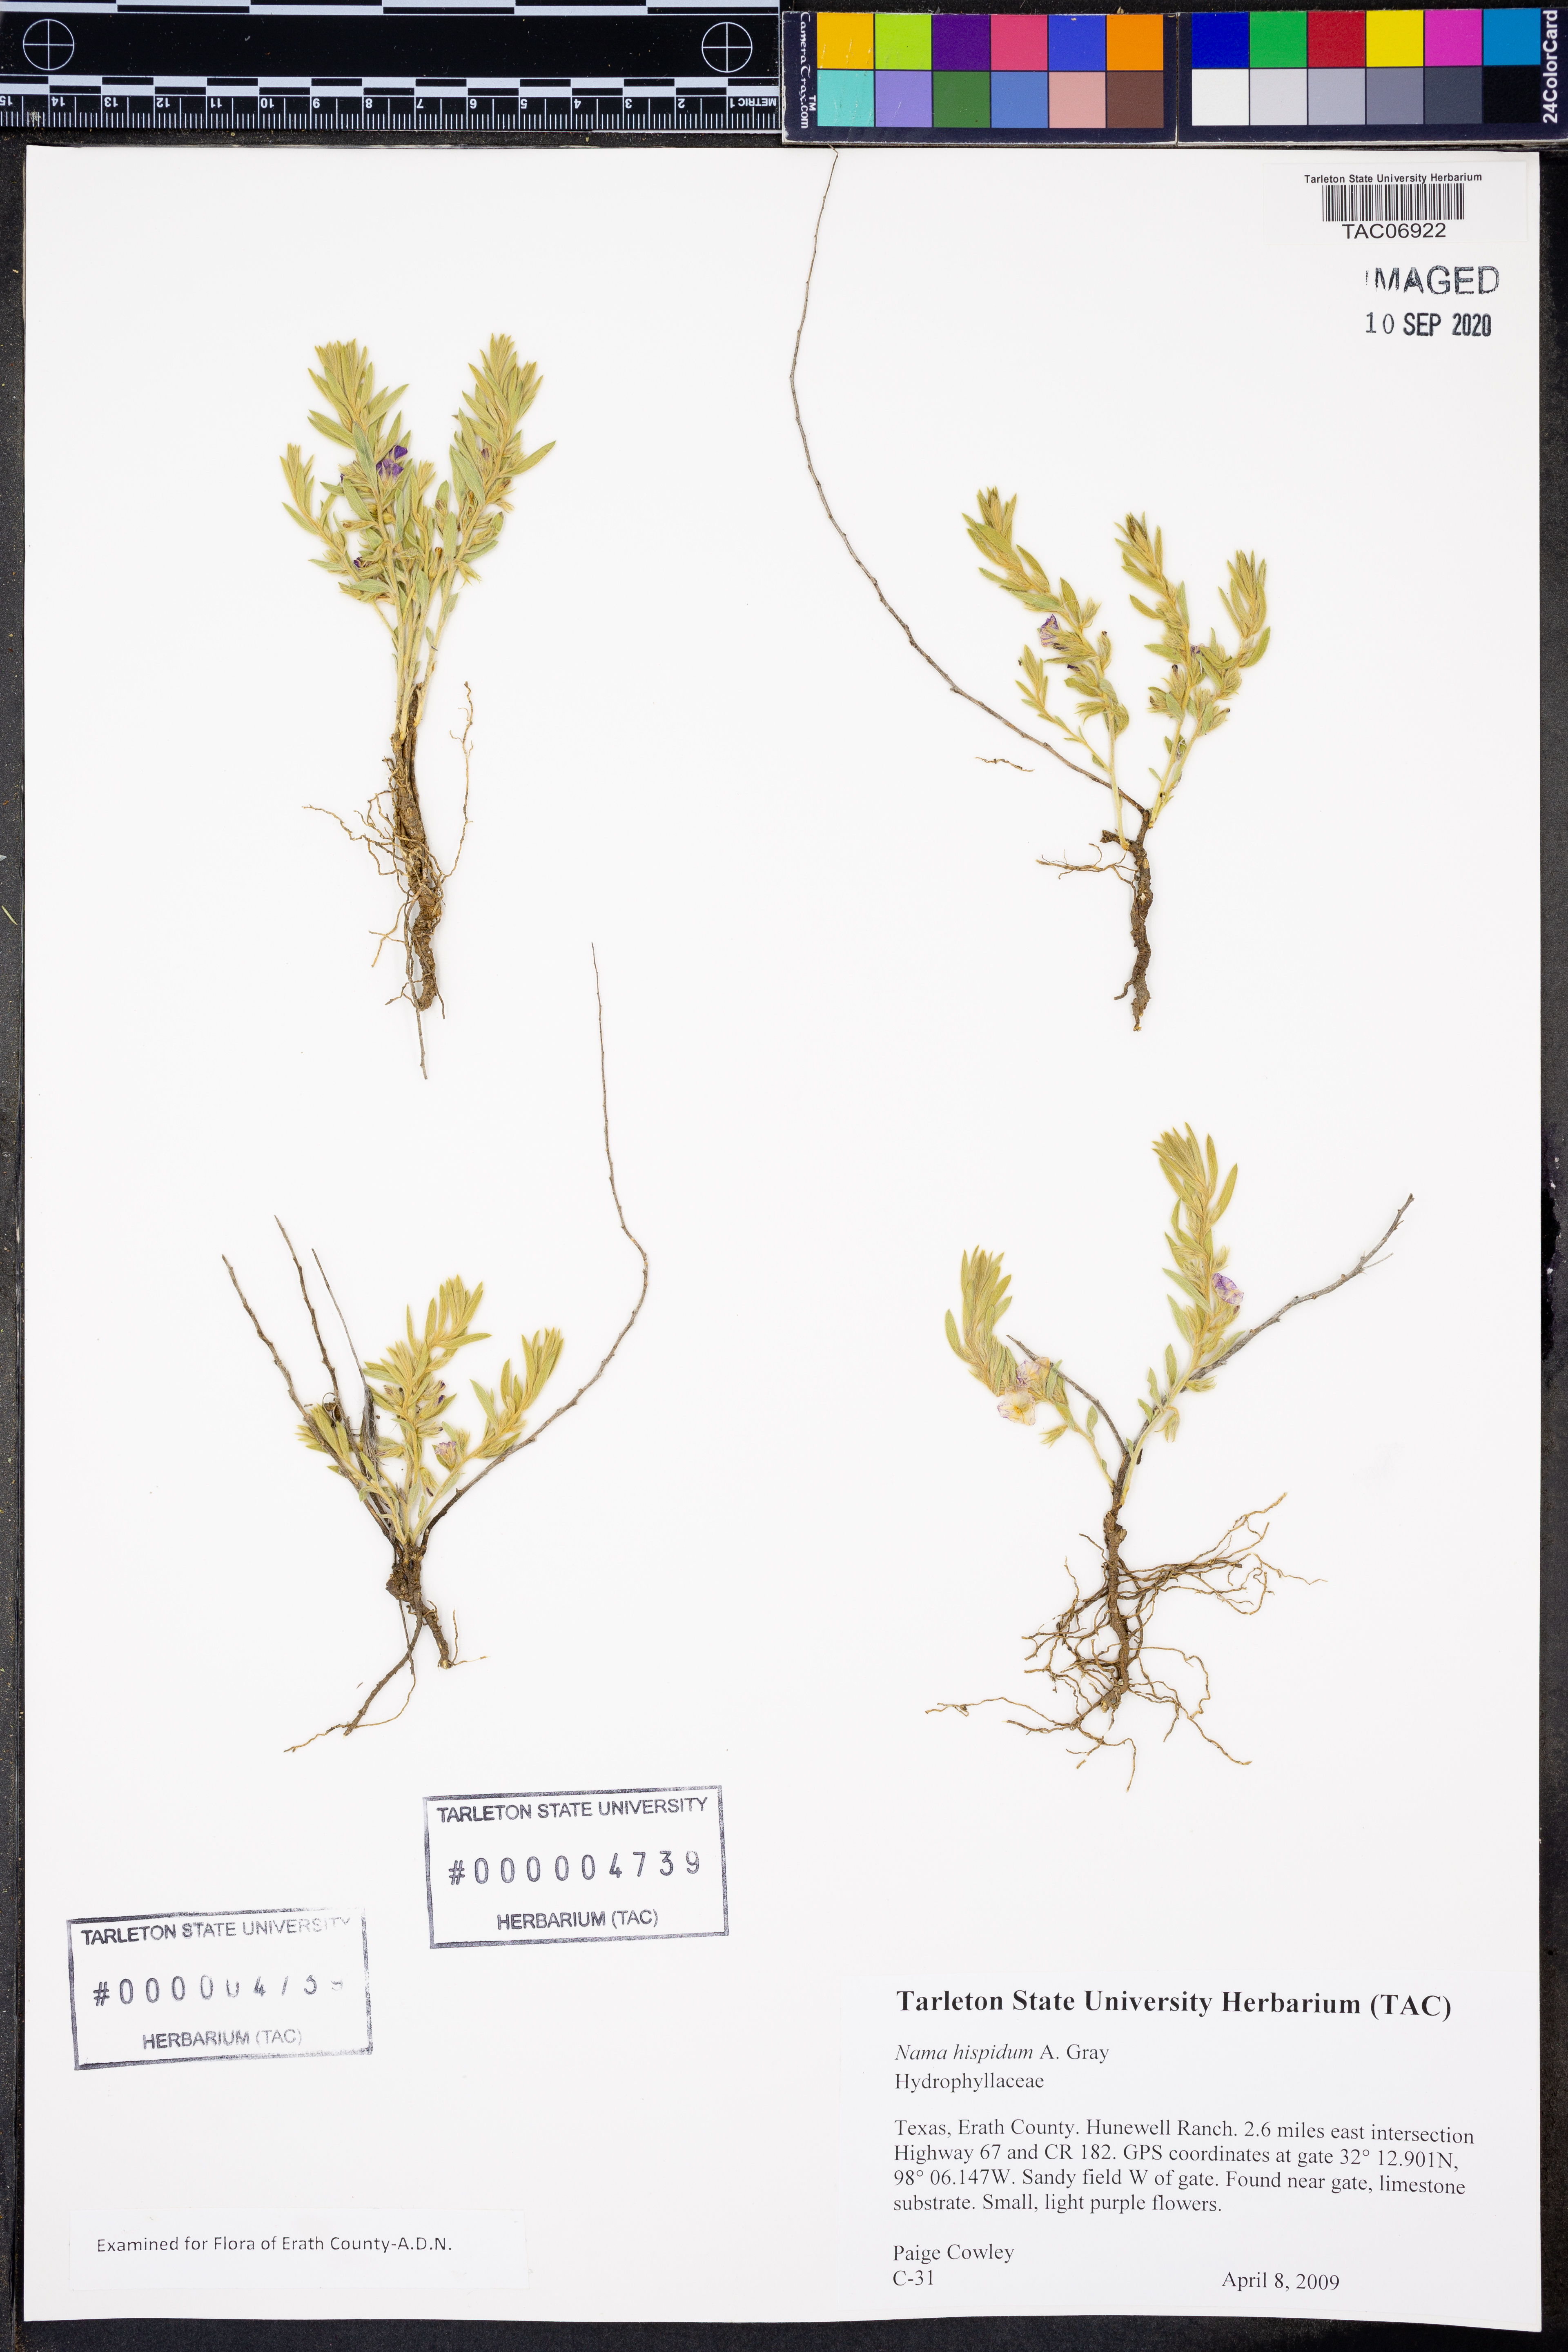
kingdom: Plantae
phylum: Tracheophyta
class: Magnoliopsida
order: Boraginales
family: Namaceae
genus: Nama
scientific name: Nama hispida
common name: Bristly nama
